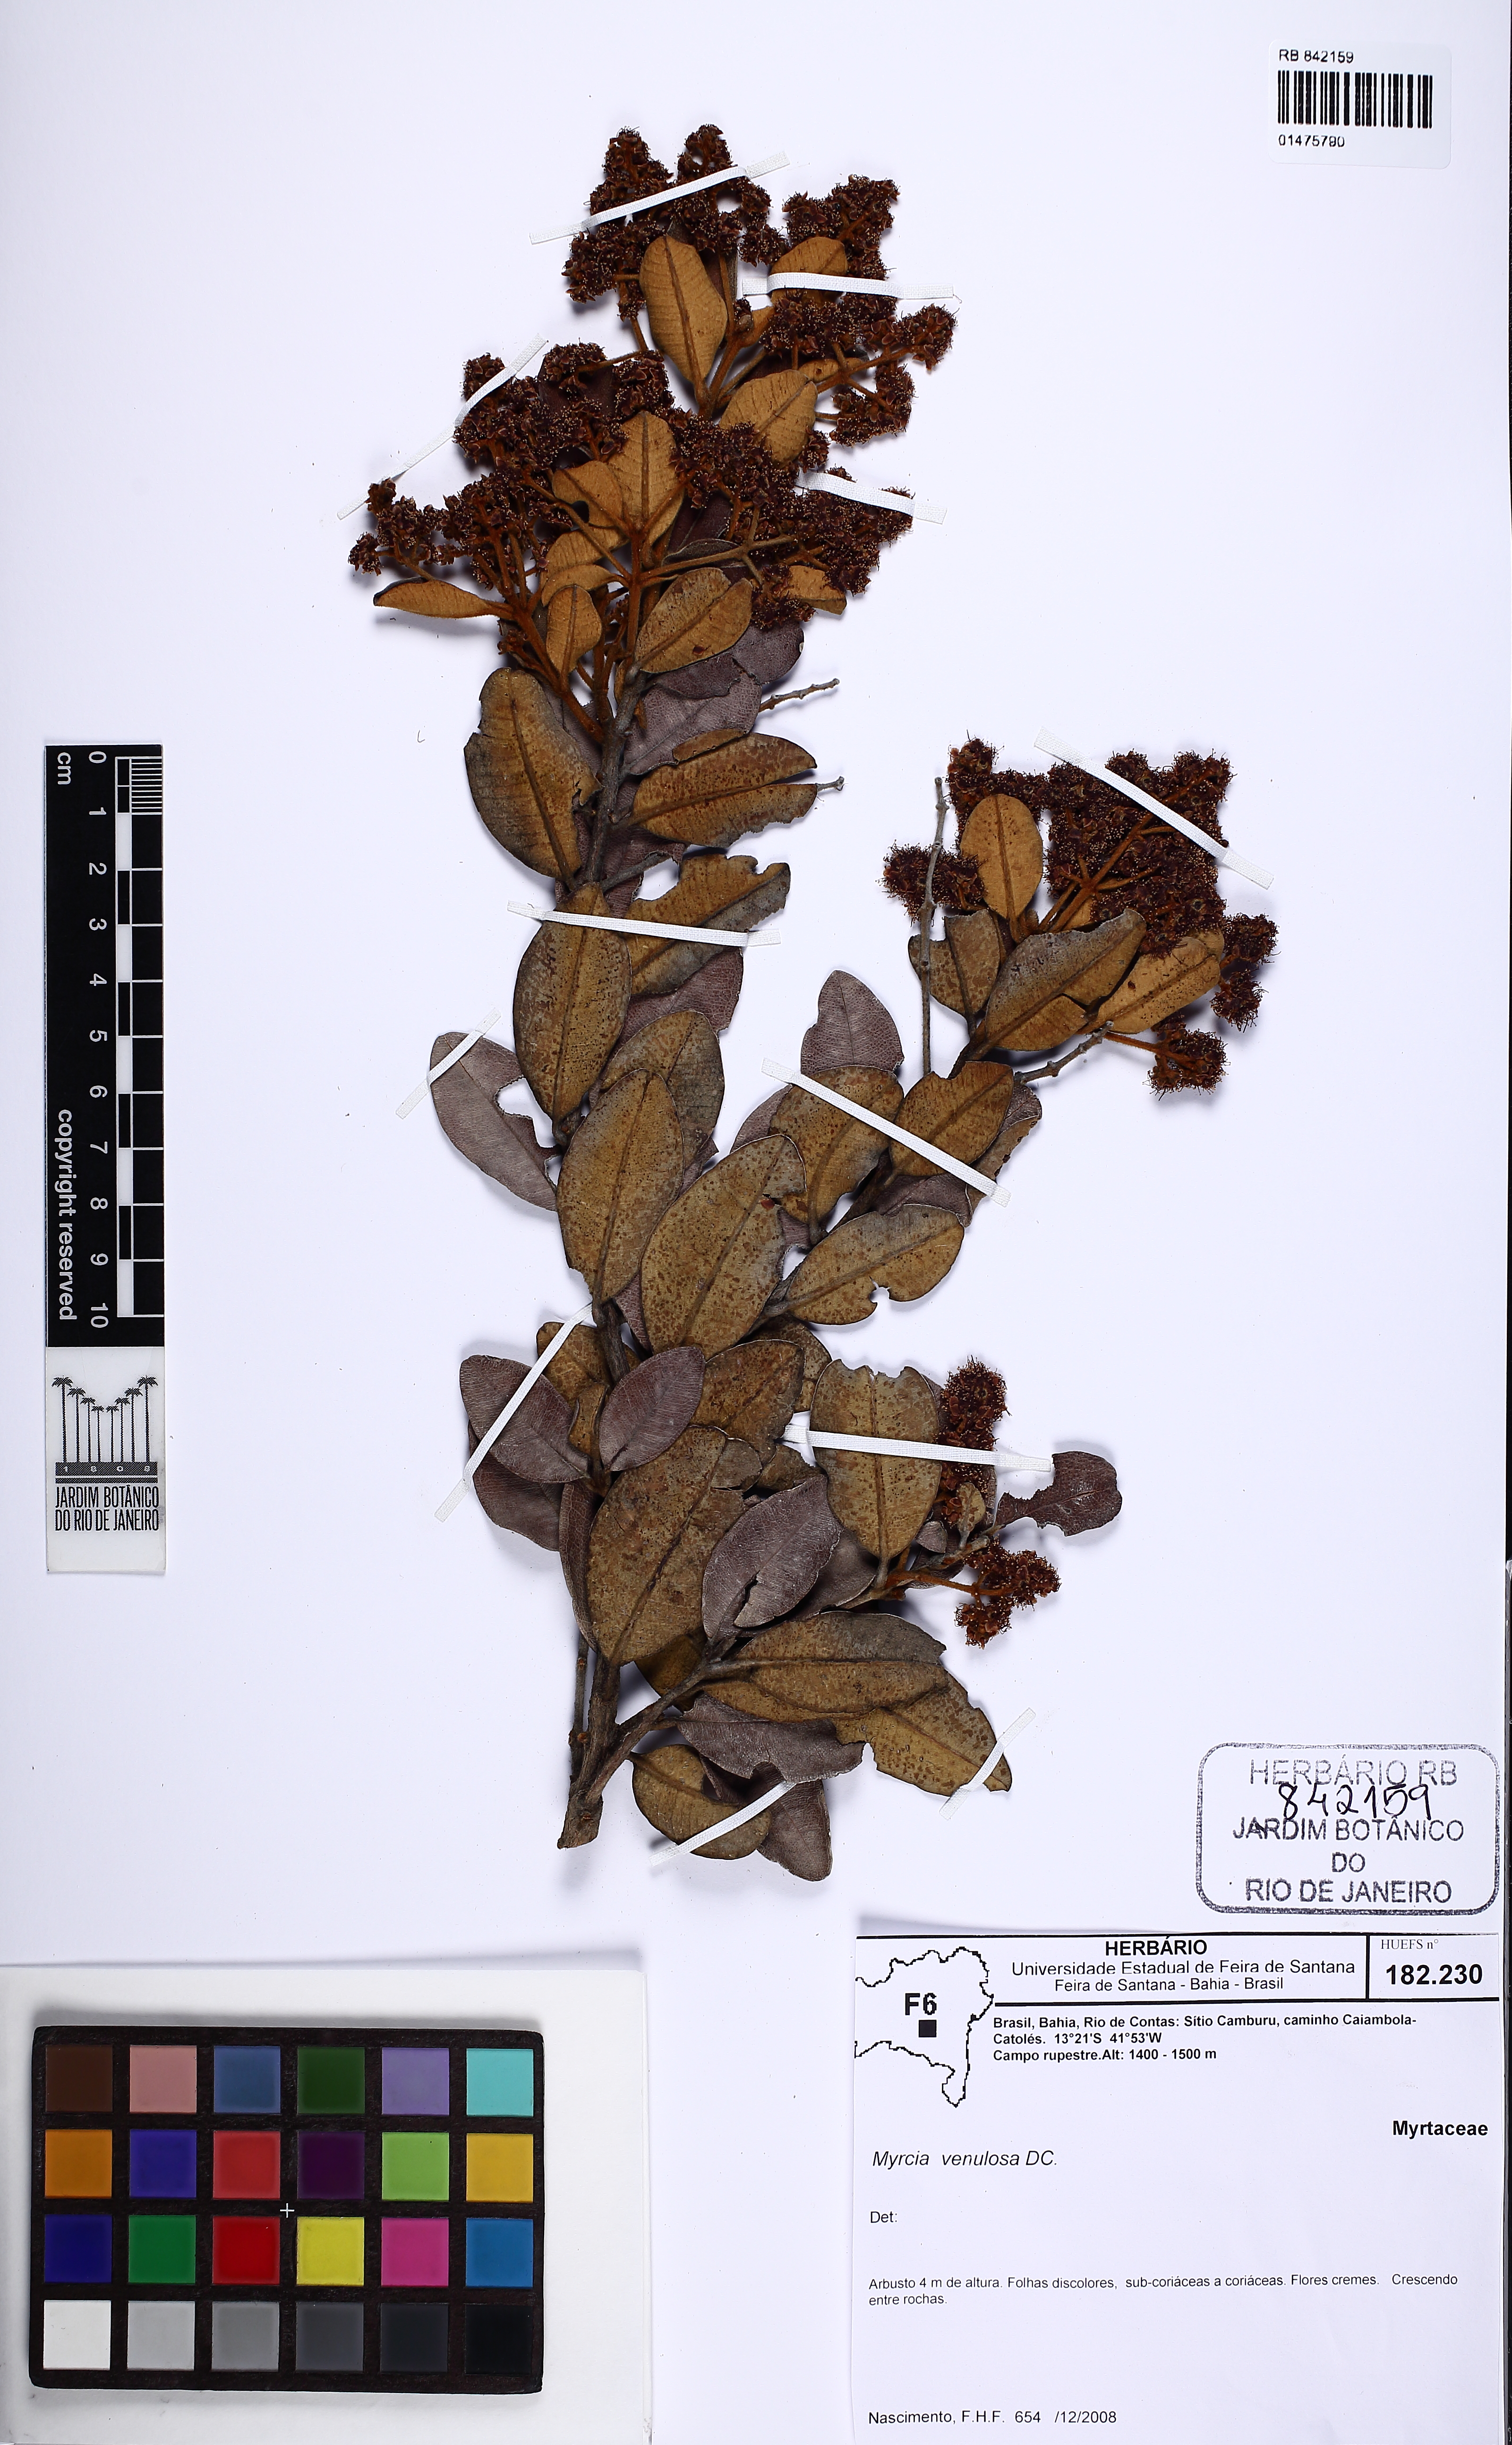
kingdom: Plantae
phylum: Tracheophyta
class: Magnoliopsida
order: Myrtales
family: Myrtaceae
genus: Myrcia
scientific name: Myrcia venulosa
